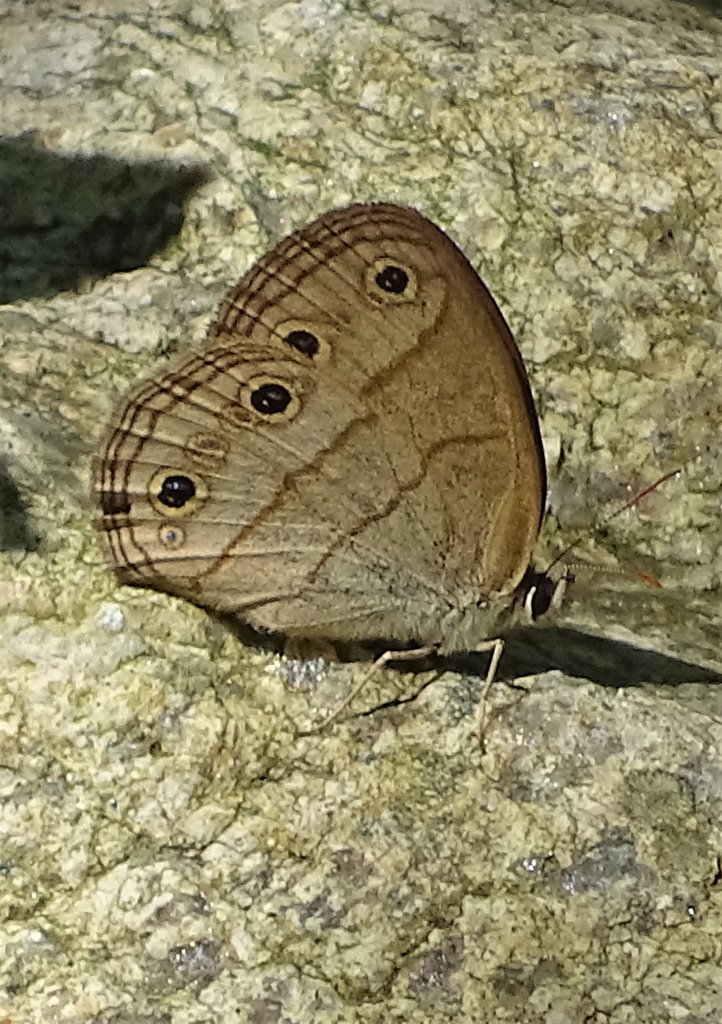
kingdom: Animalia
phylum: Arthropoda
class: Insecta
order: Lepidoptera
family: Nymphalidae
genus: Euptychia
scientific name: Euptychia cymela
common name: Little Wood Satyr
